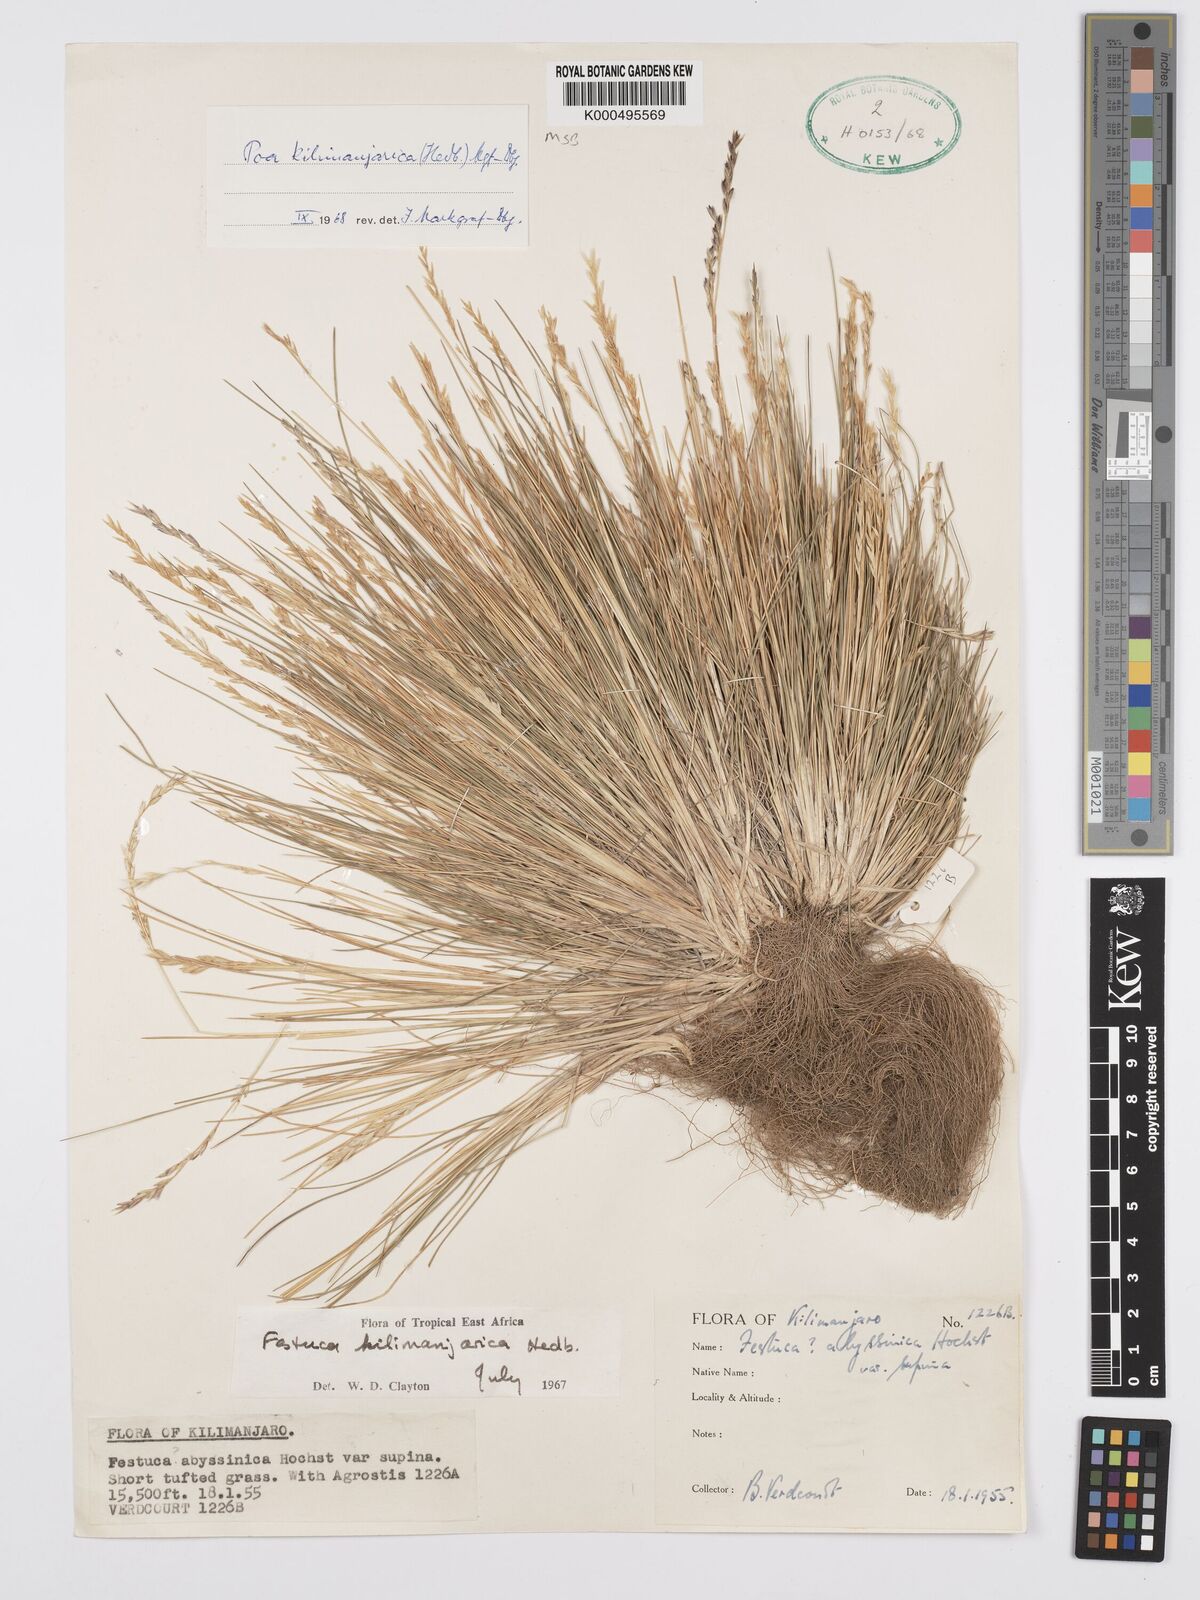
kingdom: Plantae
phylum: Tracheophyta
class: Liliopsida
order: Poales
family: Poaceae
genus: Poa
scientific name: Poa kilimanjarica
